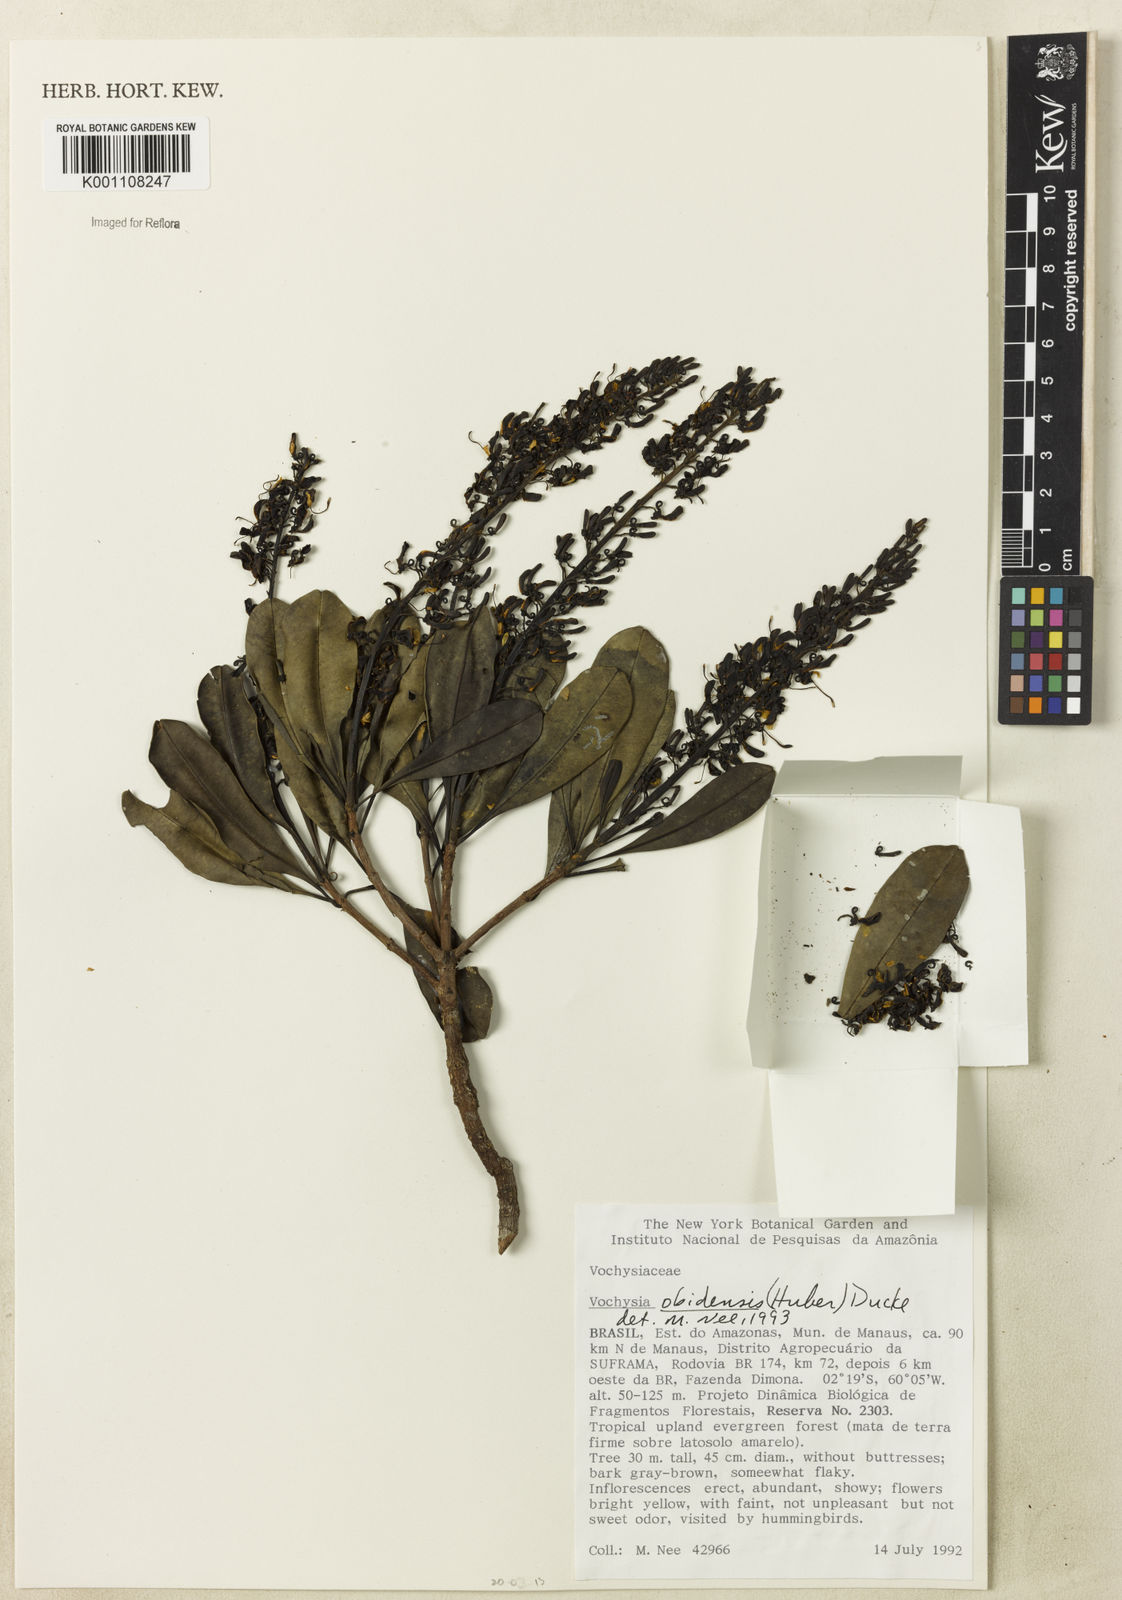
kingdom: Plantae
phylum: Tracheophyta
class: Magnoliopsida
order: Myrtales
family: Vochysiaceae
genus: Vochysia
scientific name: Vochysia obidensis
